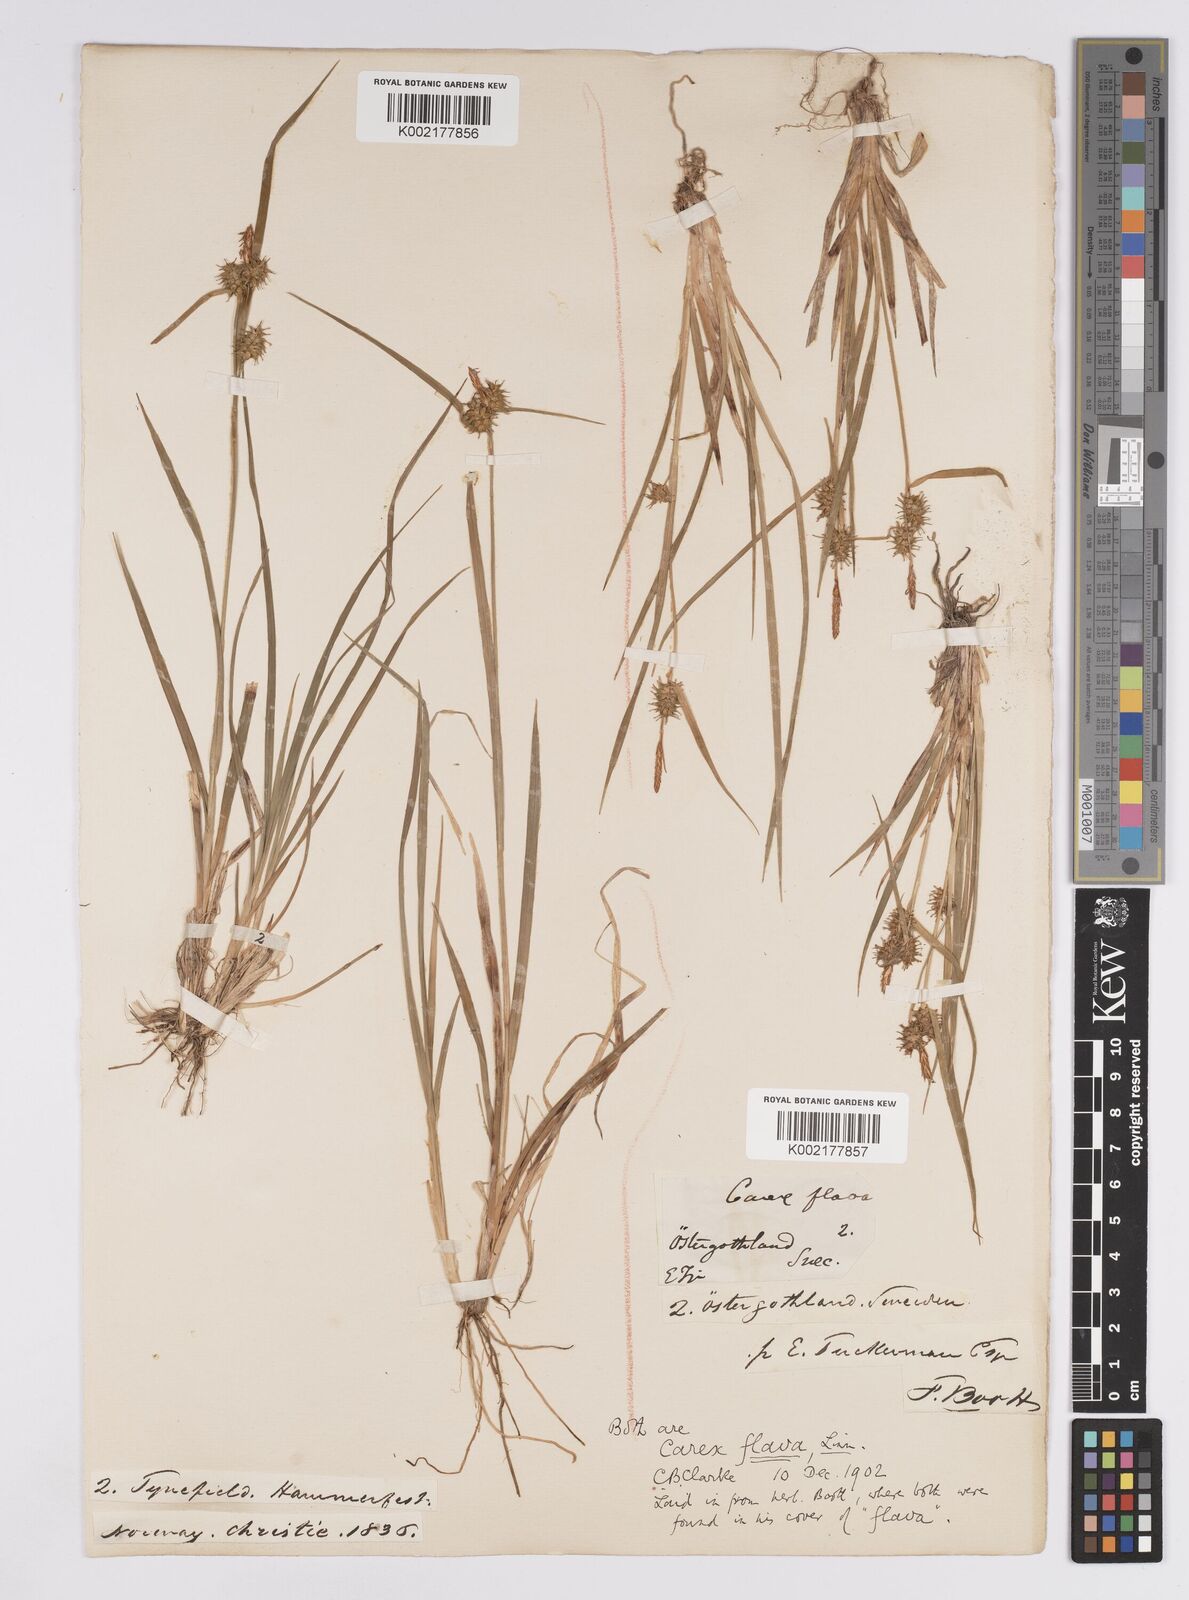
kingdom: Plantae
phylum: Tracheophyta
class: Liliopsida
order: Poales
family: Cyperaceae
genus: Carex
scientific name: Carex flava
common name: Large yellow-sedge
